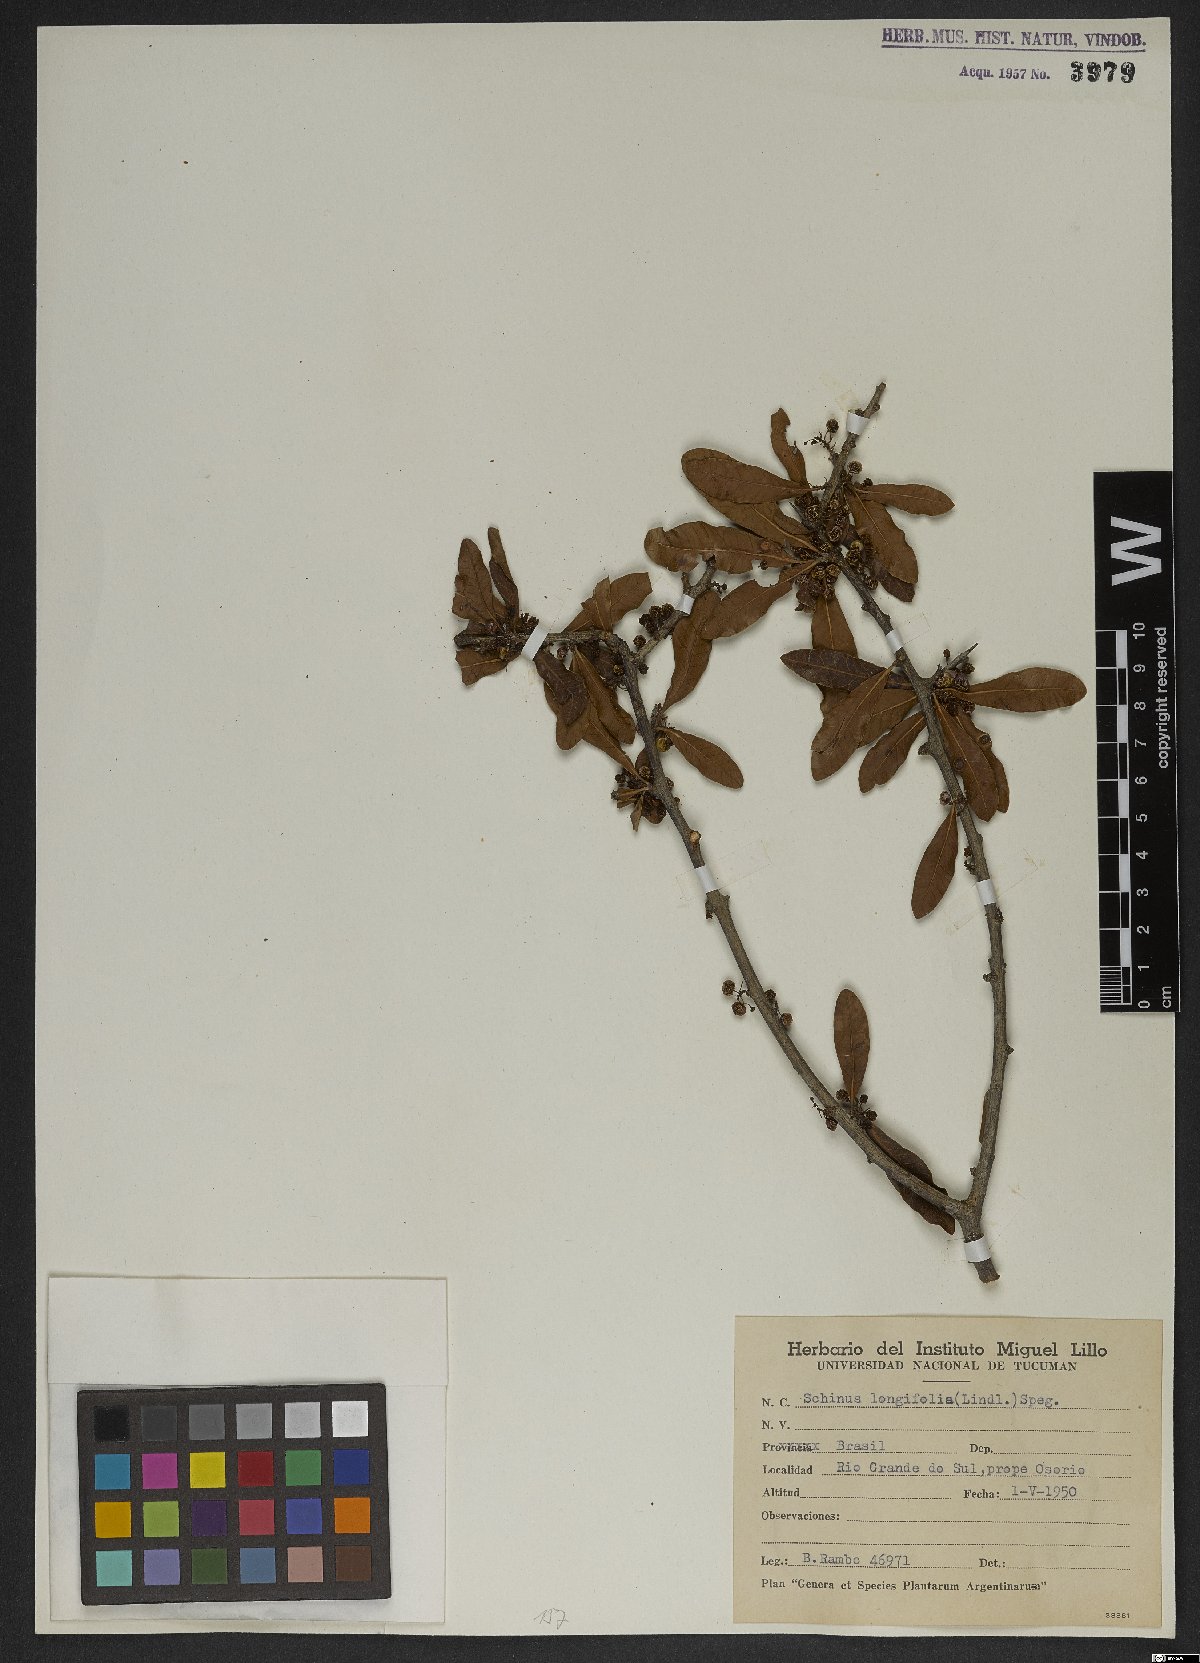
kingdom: Plantae
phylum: Tracheophyta
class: Magnoliopsida
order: Sapindales
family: Anacardiaceae
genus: Schinus
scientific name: Schinus longifolia
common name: Longleaf peppertree
